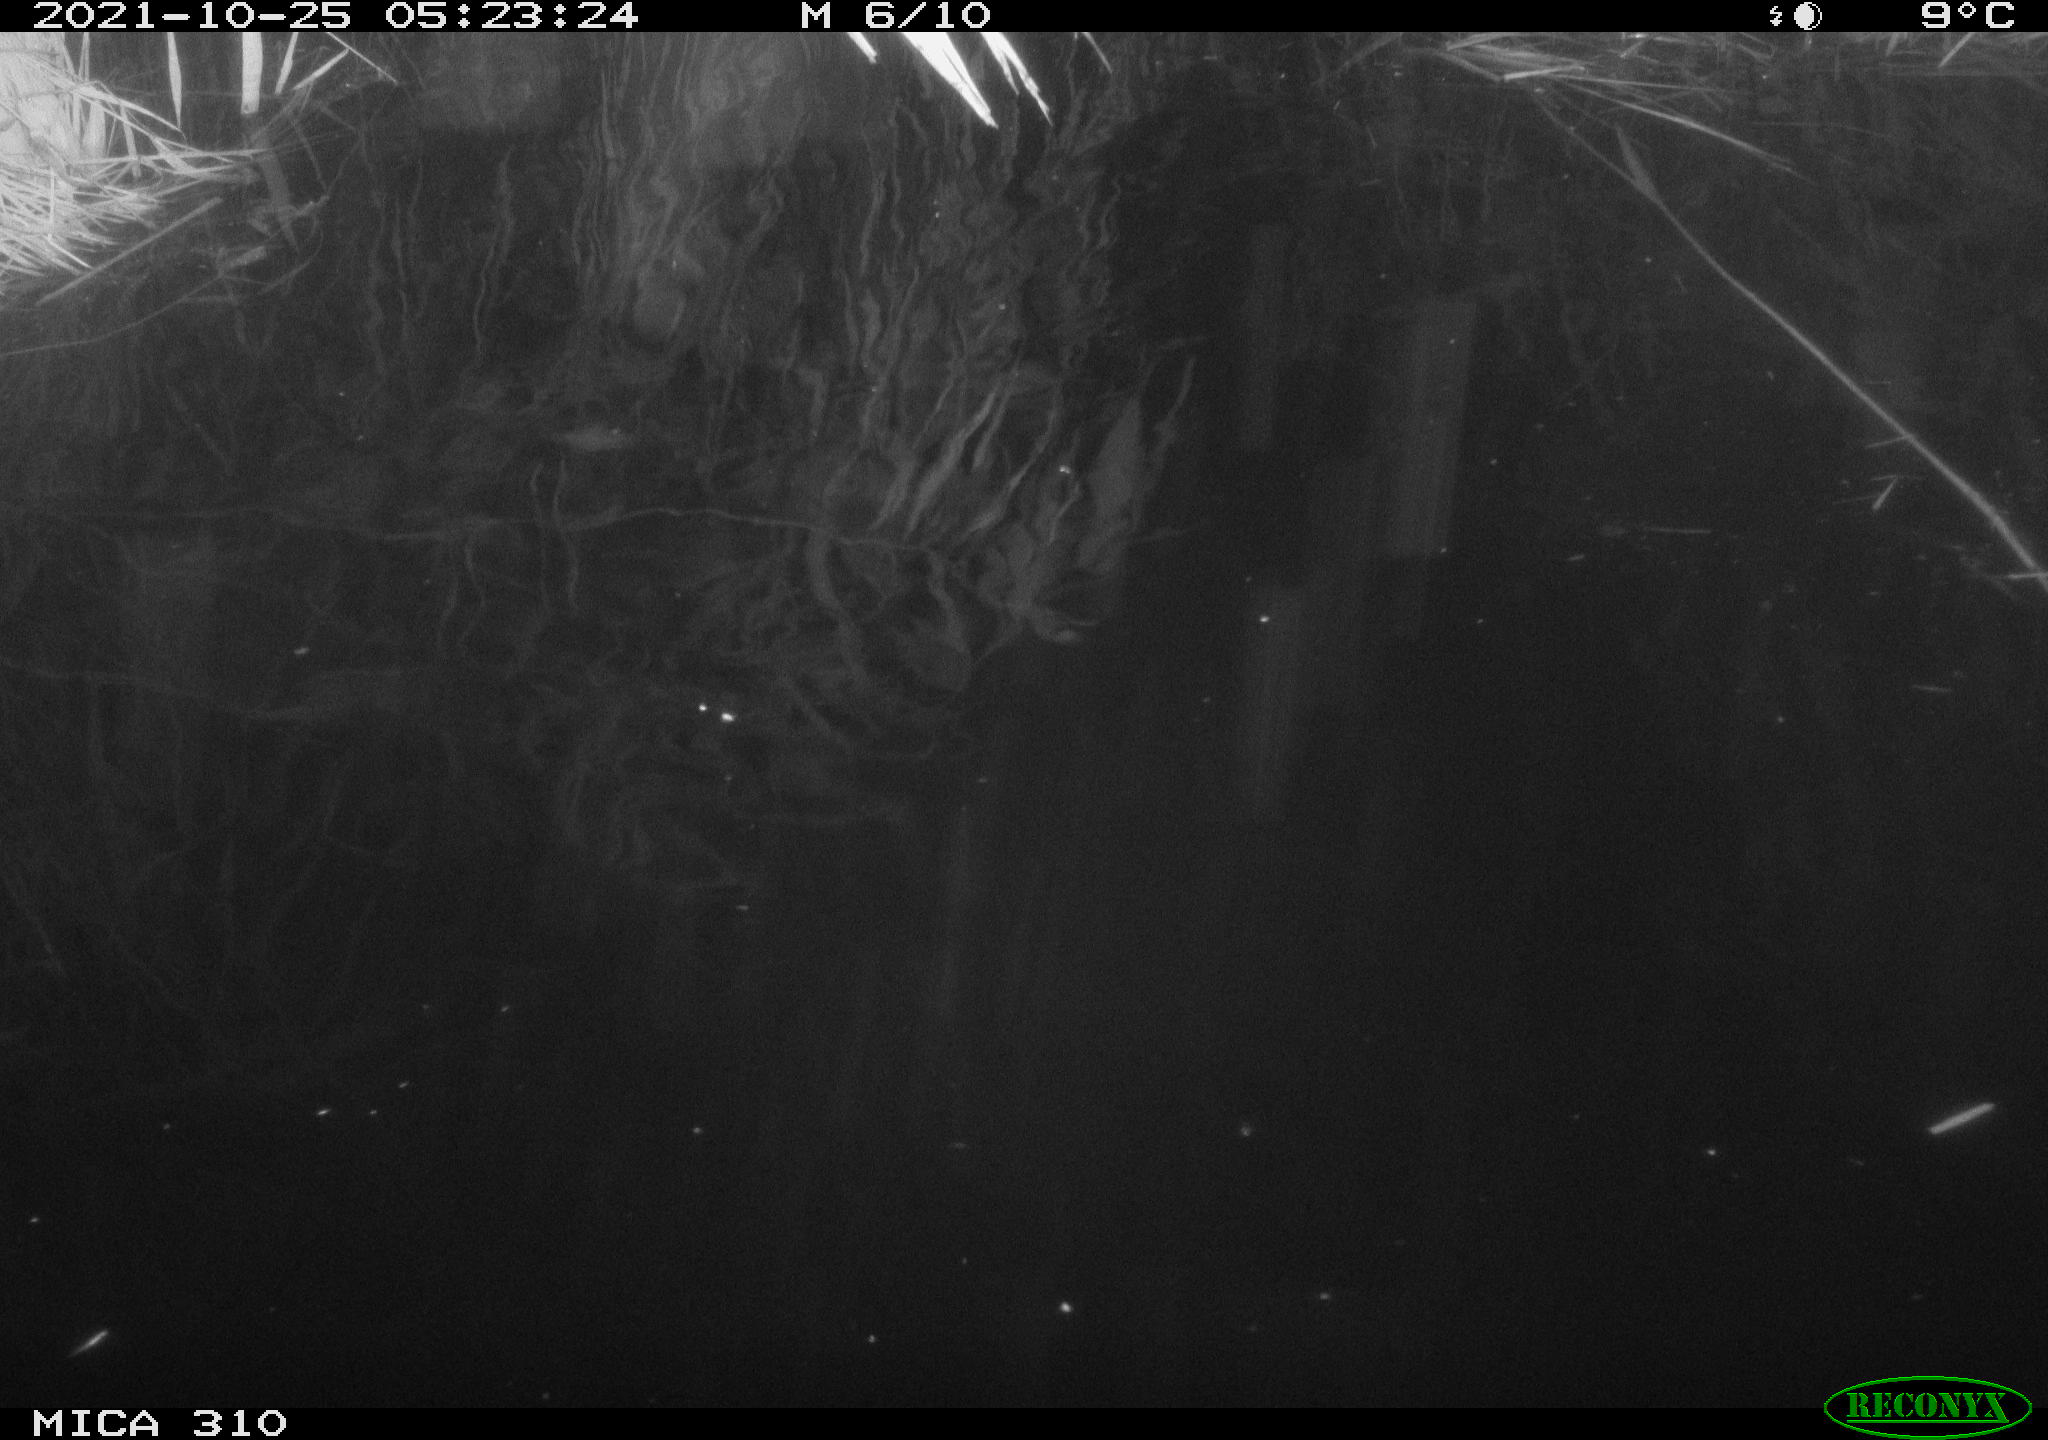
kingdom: Animalia
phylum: Chordata
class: Aves
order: Anseriformes
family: Anatidae
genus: Anas
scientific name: Anas platyrhynchos
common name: Mallard
